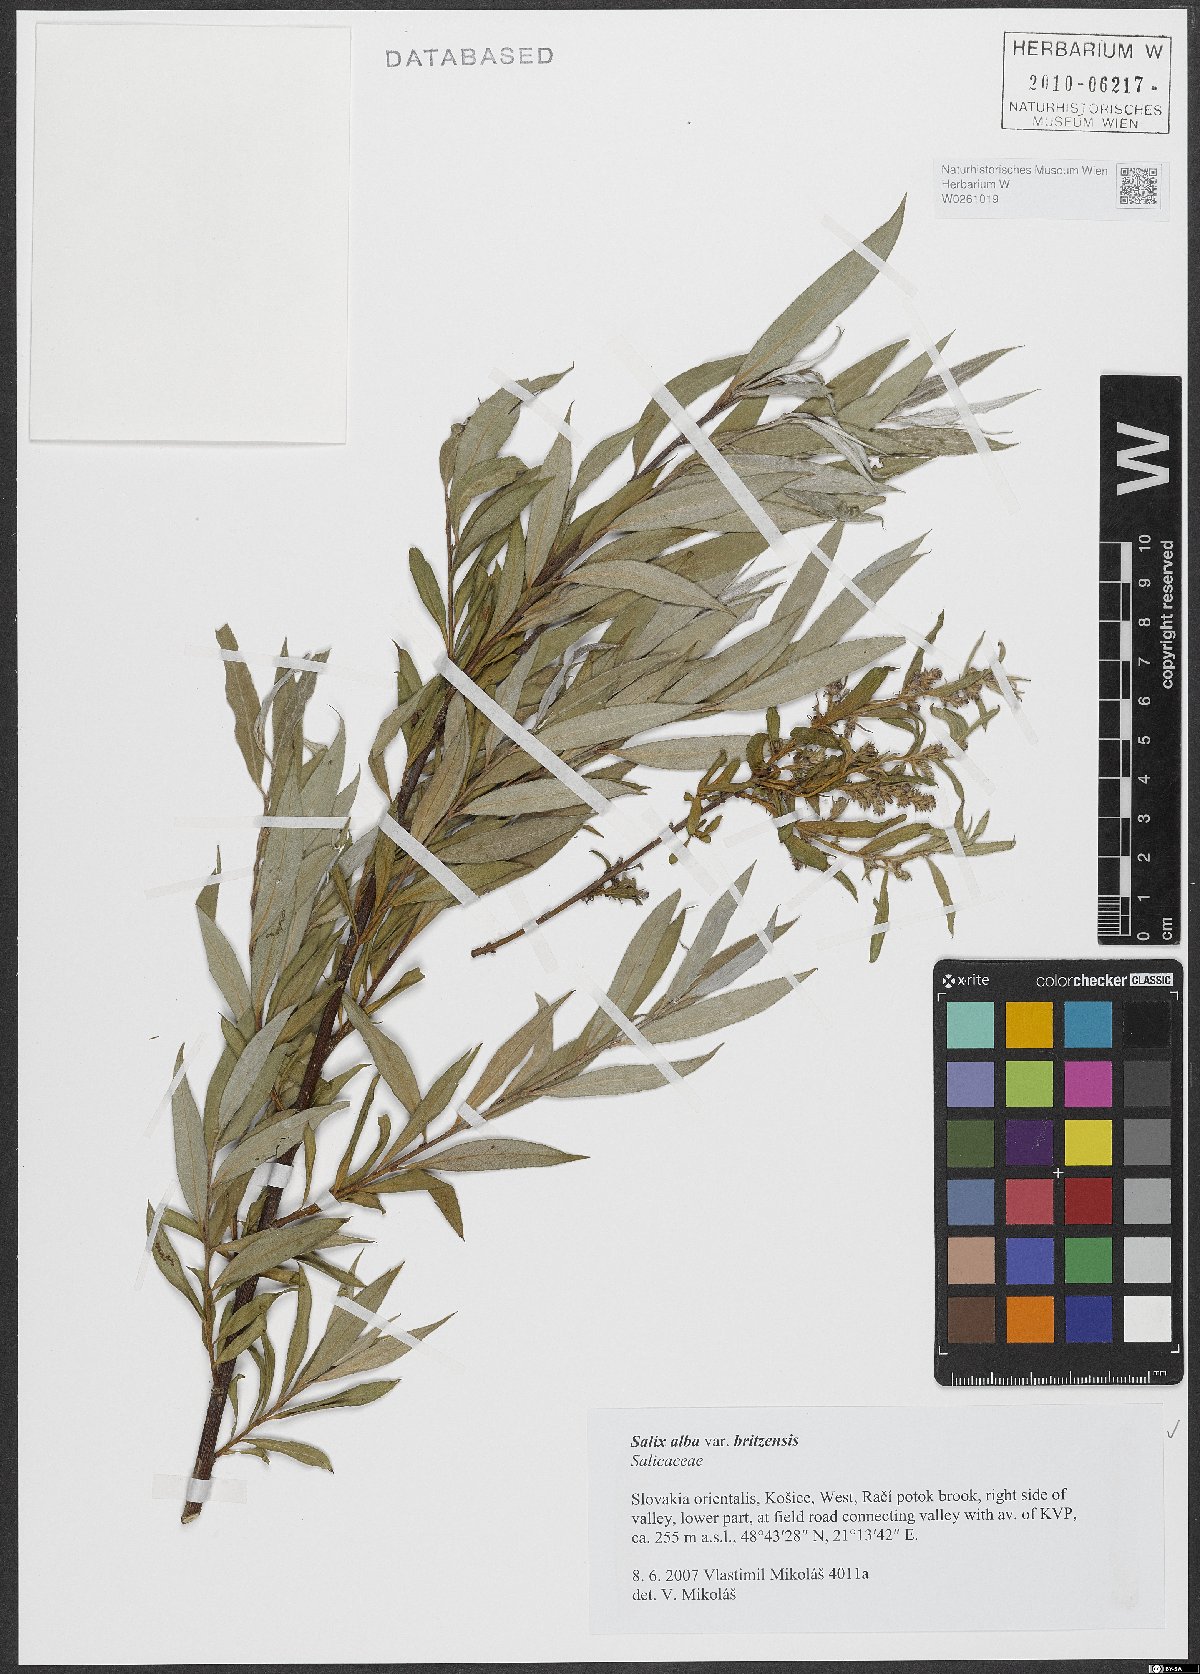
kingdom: Plantae
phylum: Tracheophyta
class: Magnoliopsida
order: Malpighiales
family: Salicaceae
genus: Salix
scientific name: Salix alba
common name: White willow
